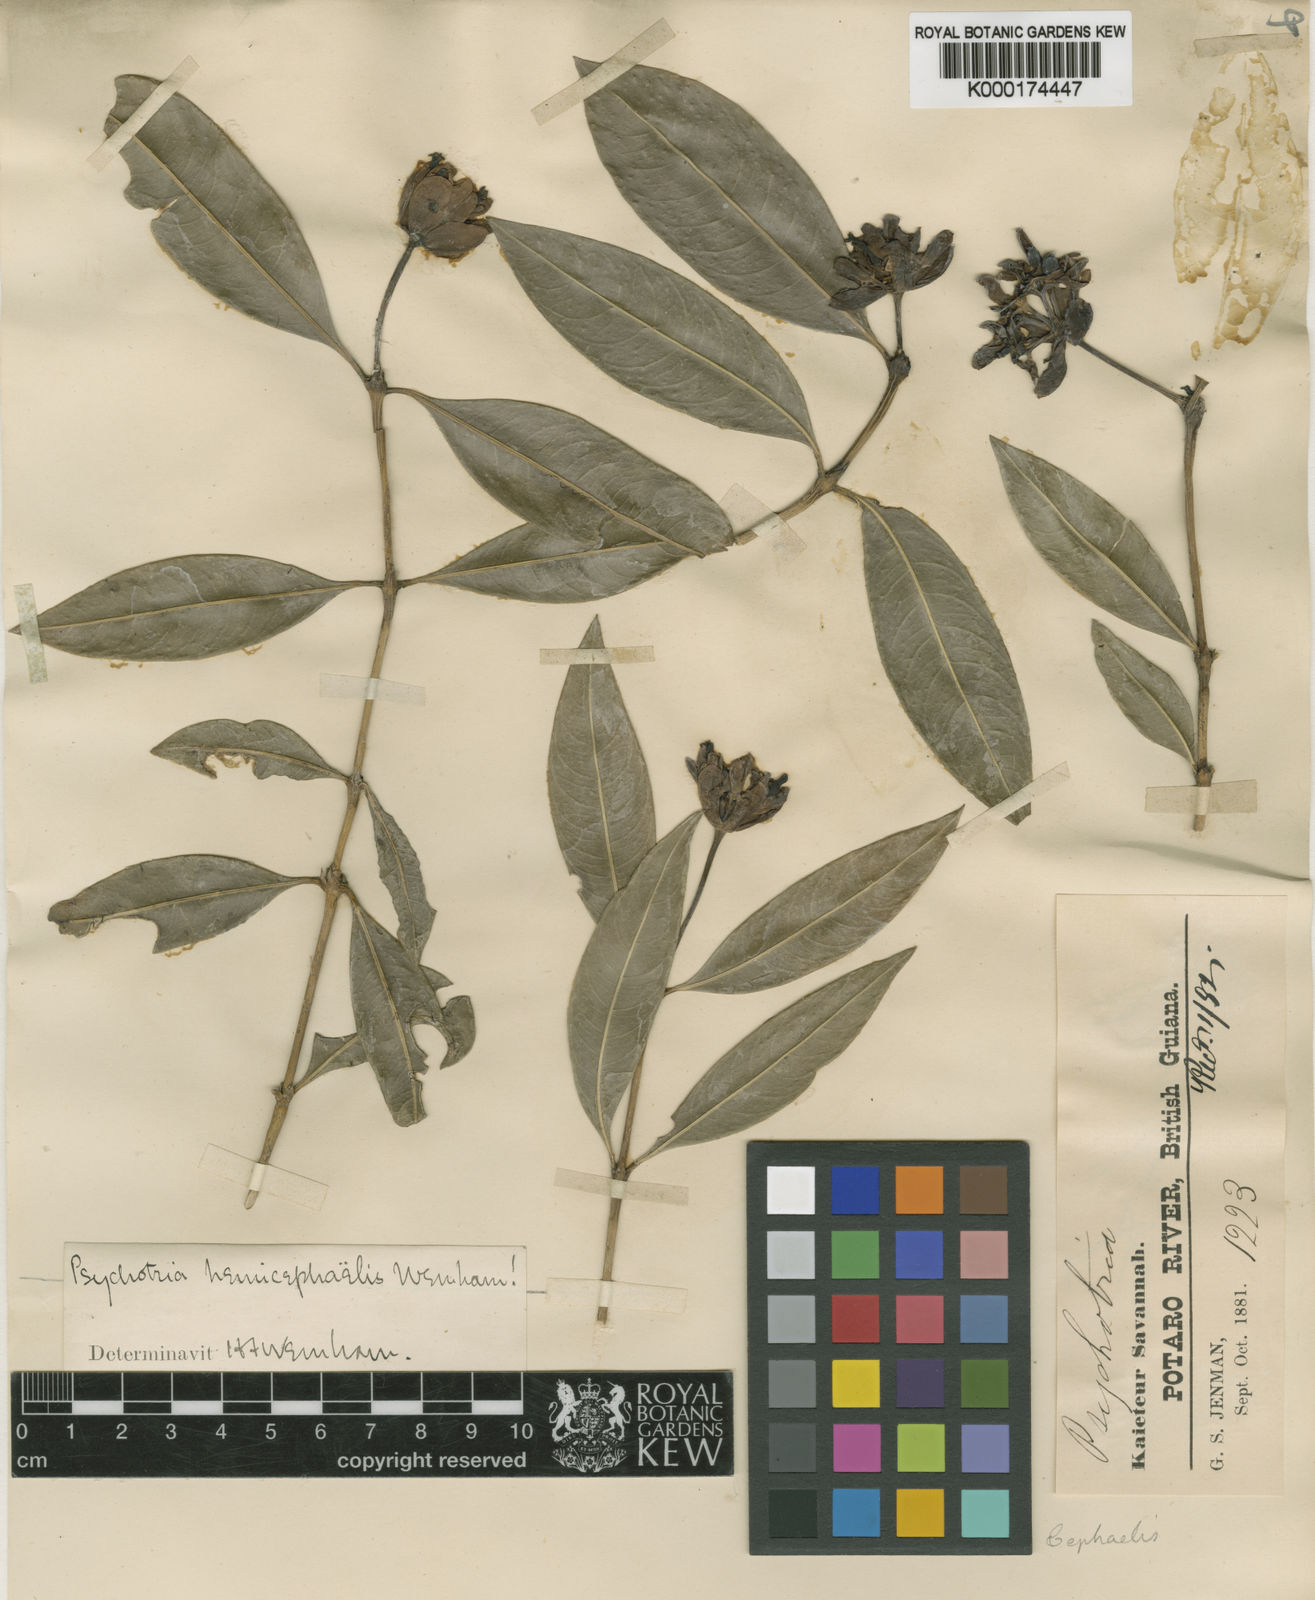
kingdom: Plantae
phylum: Tracheophyta
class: Magnoliopsida
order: Gentianales
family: Rubiaceae
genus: Palicourea
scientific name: Palicourea hemicephaelis
